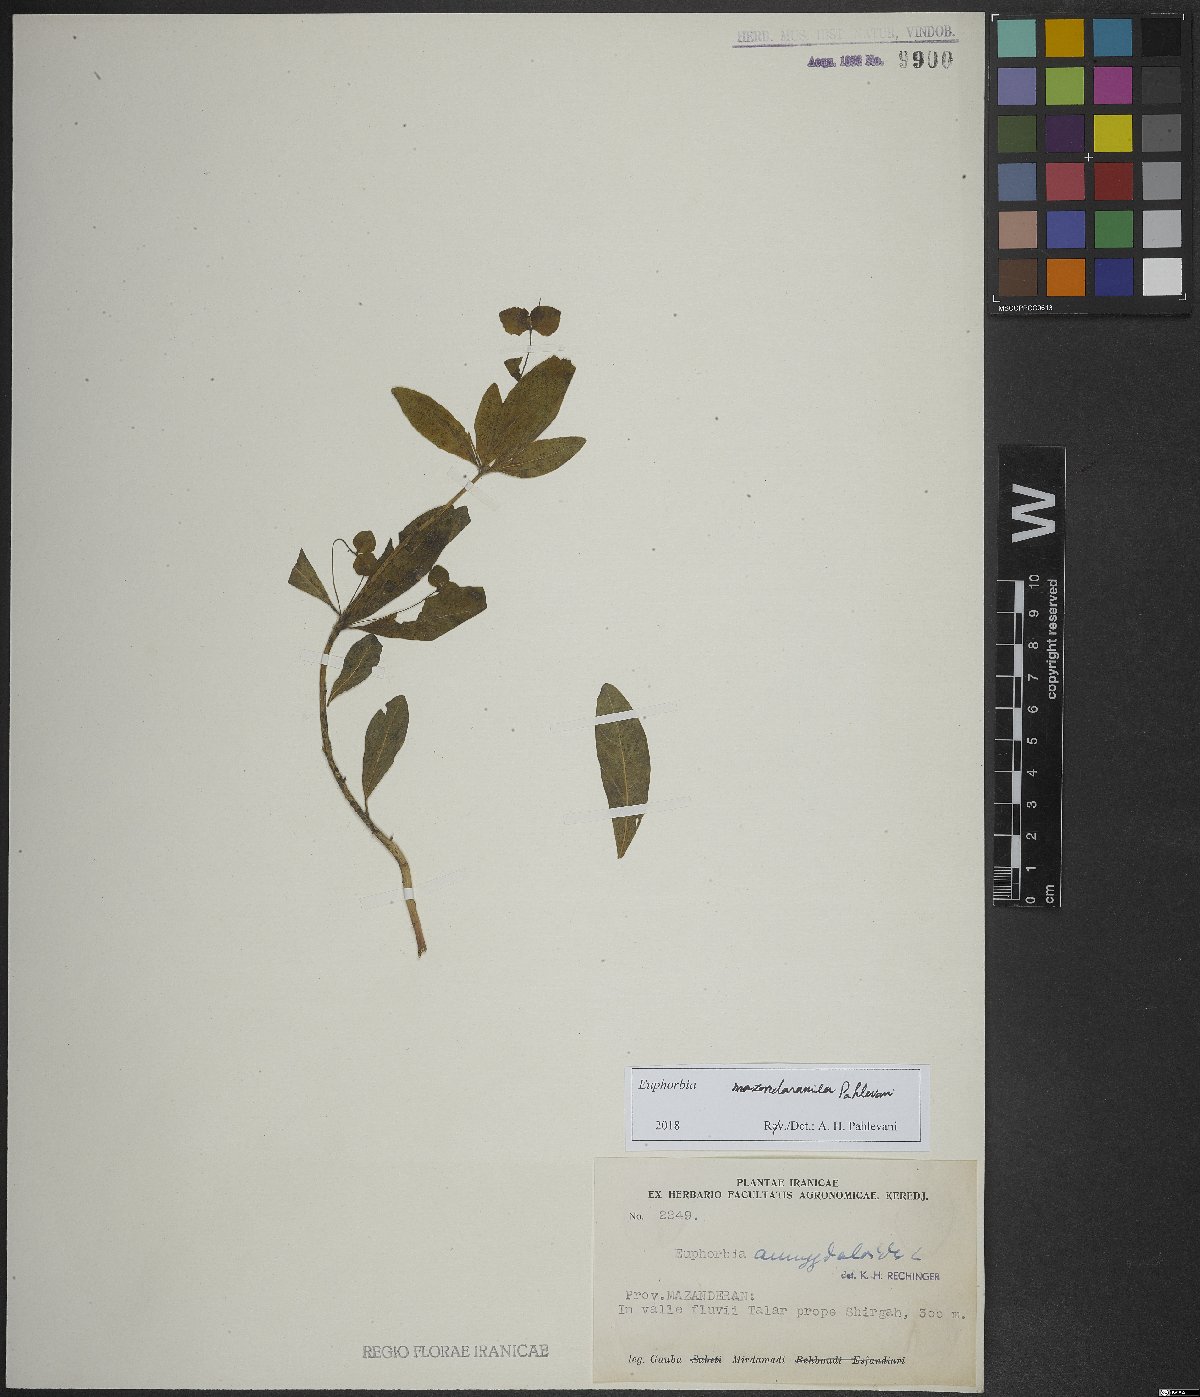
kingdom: Plantae
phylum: Tracheophyta
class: Magnoliopsida
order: Malpighiales
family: Euphorbiaceae
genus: Euphorbia
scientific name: Euphorbia mazandaranica
